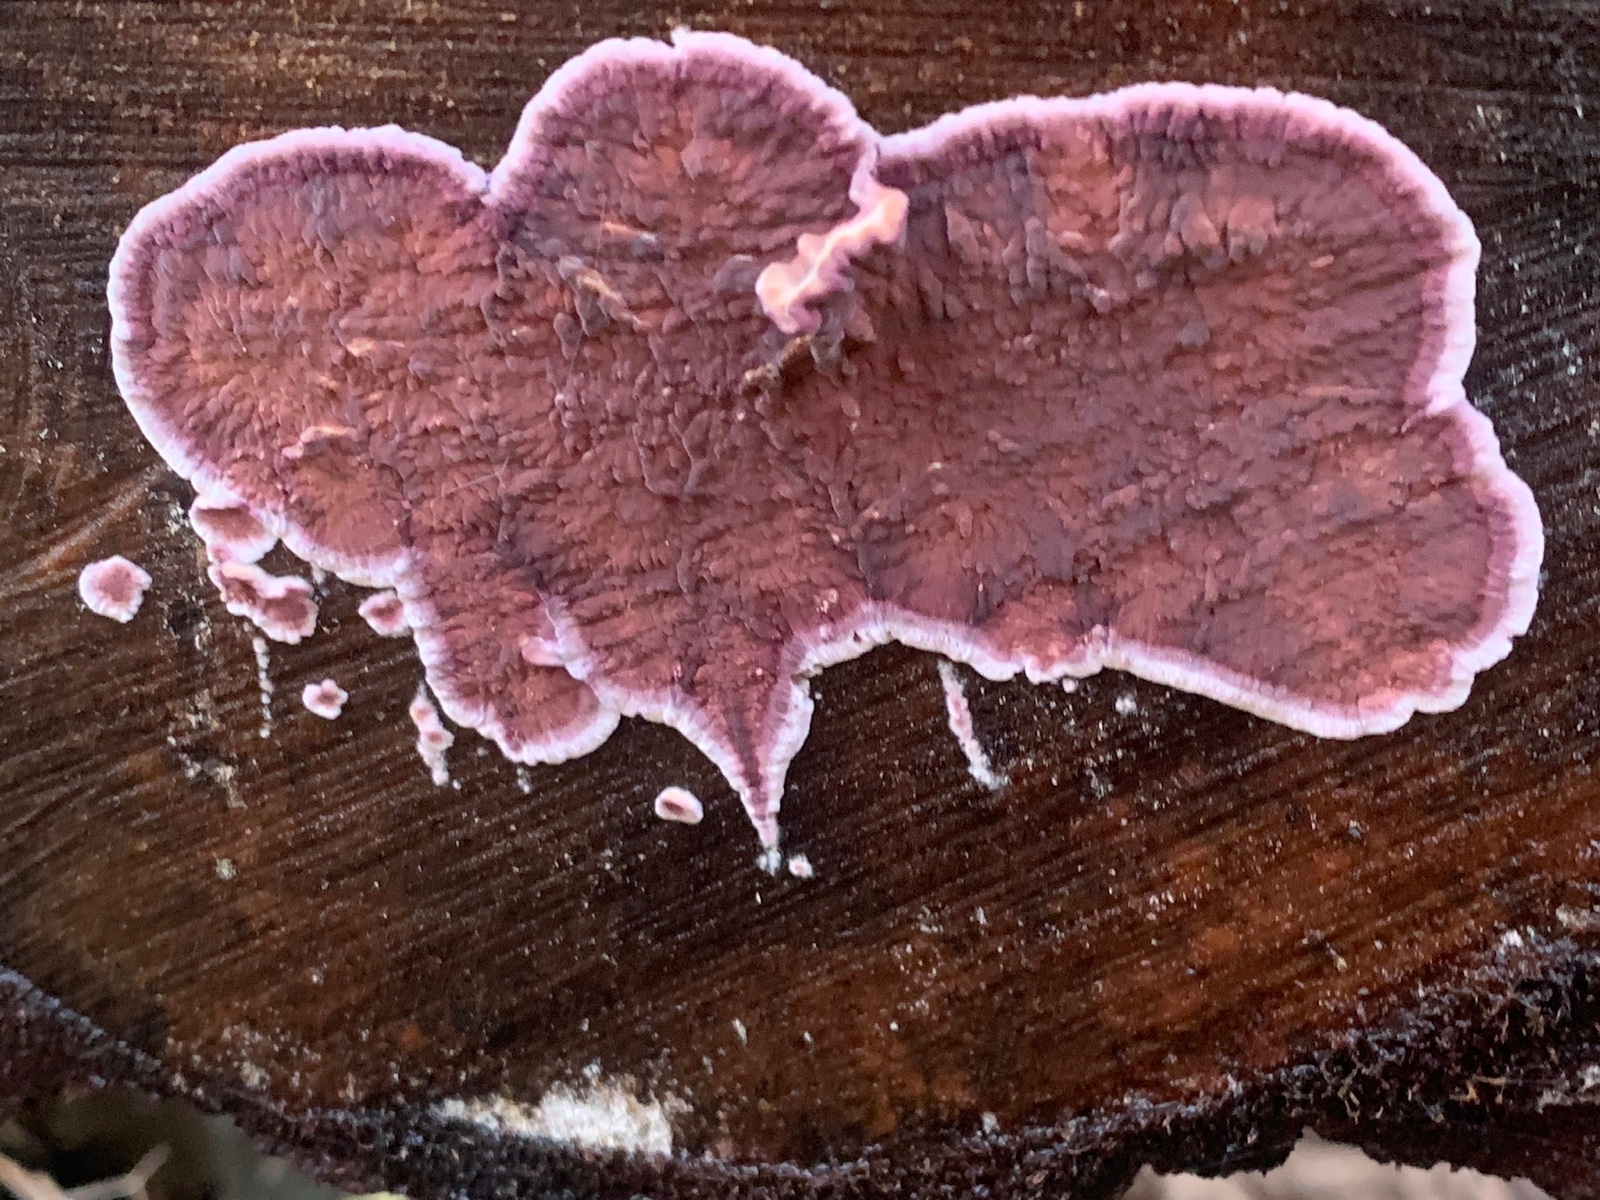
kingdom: Fungi
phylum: Basidiomycota
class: Agaricomycetes
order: Agaricales
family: Cyphellaceae
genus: Chondrostereum
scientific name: Chondrostereum purpureum
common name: purpurlædersvamp
